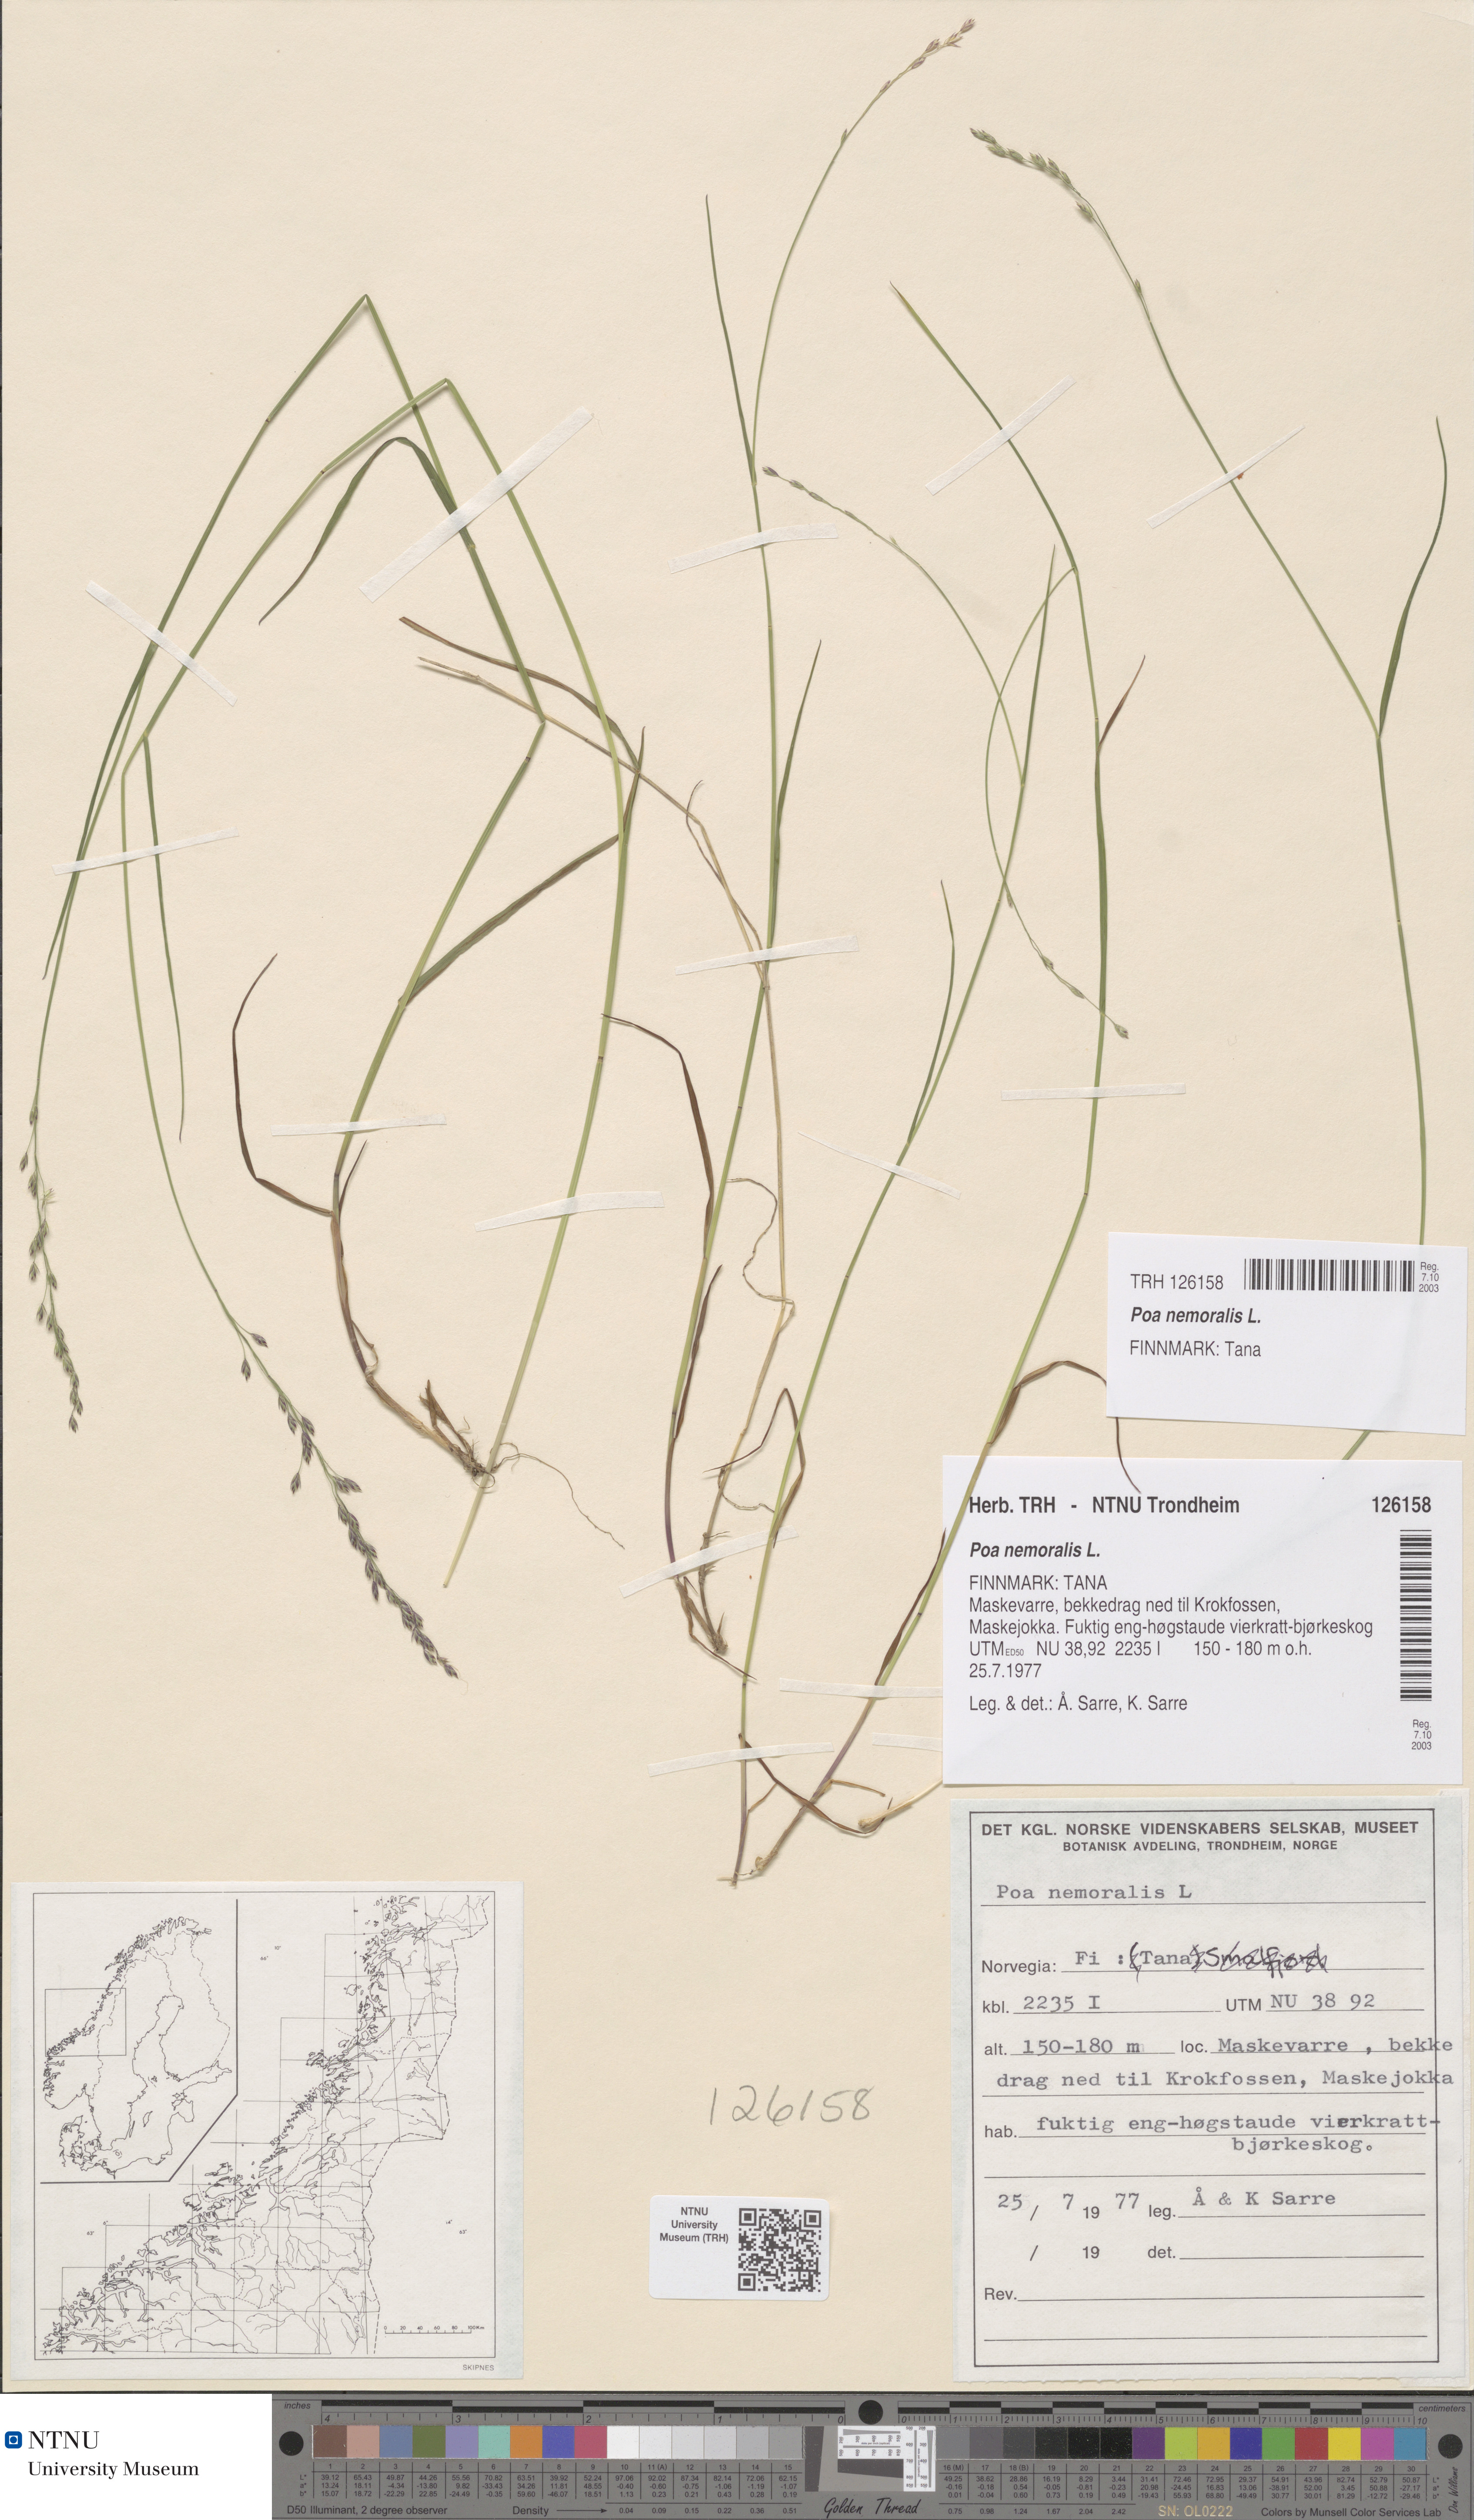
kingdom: Plantae
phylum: Tracheophyta
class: Liliopsida
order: Poales
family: Poaceae
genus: Poa
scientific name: Poa nemoralis
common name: Wood bluegrass
